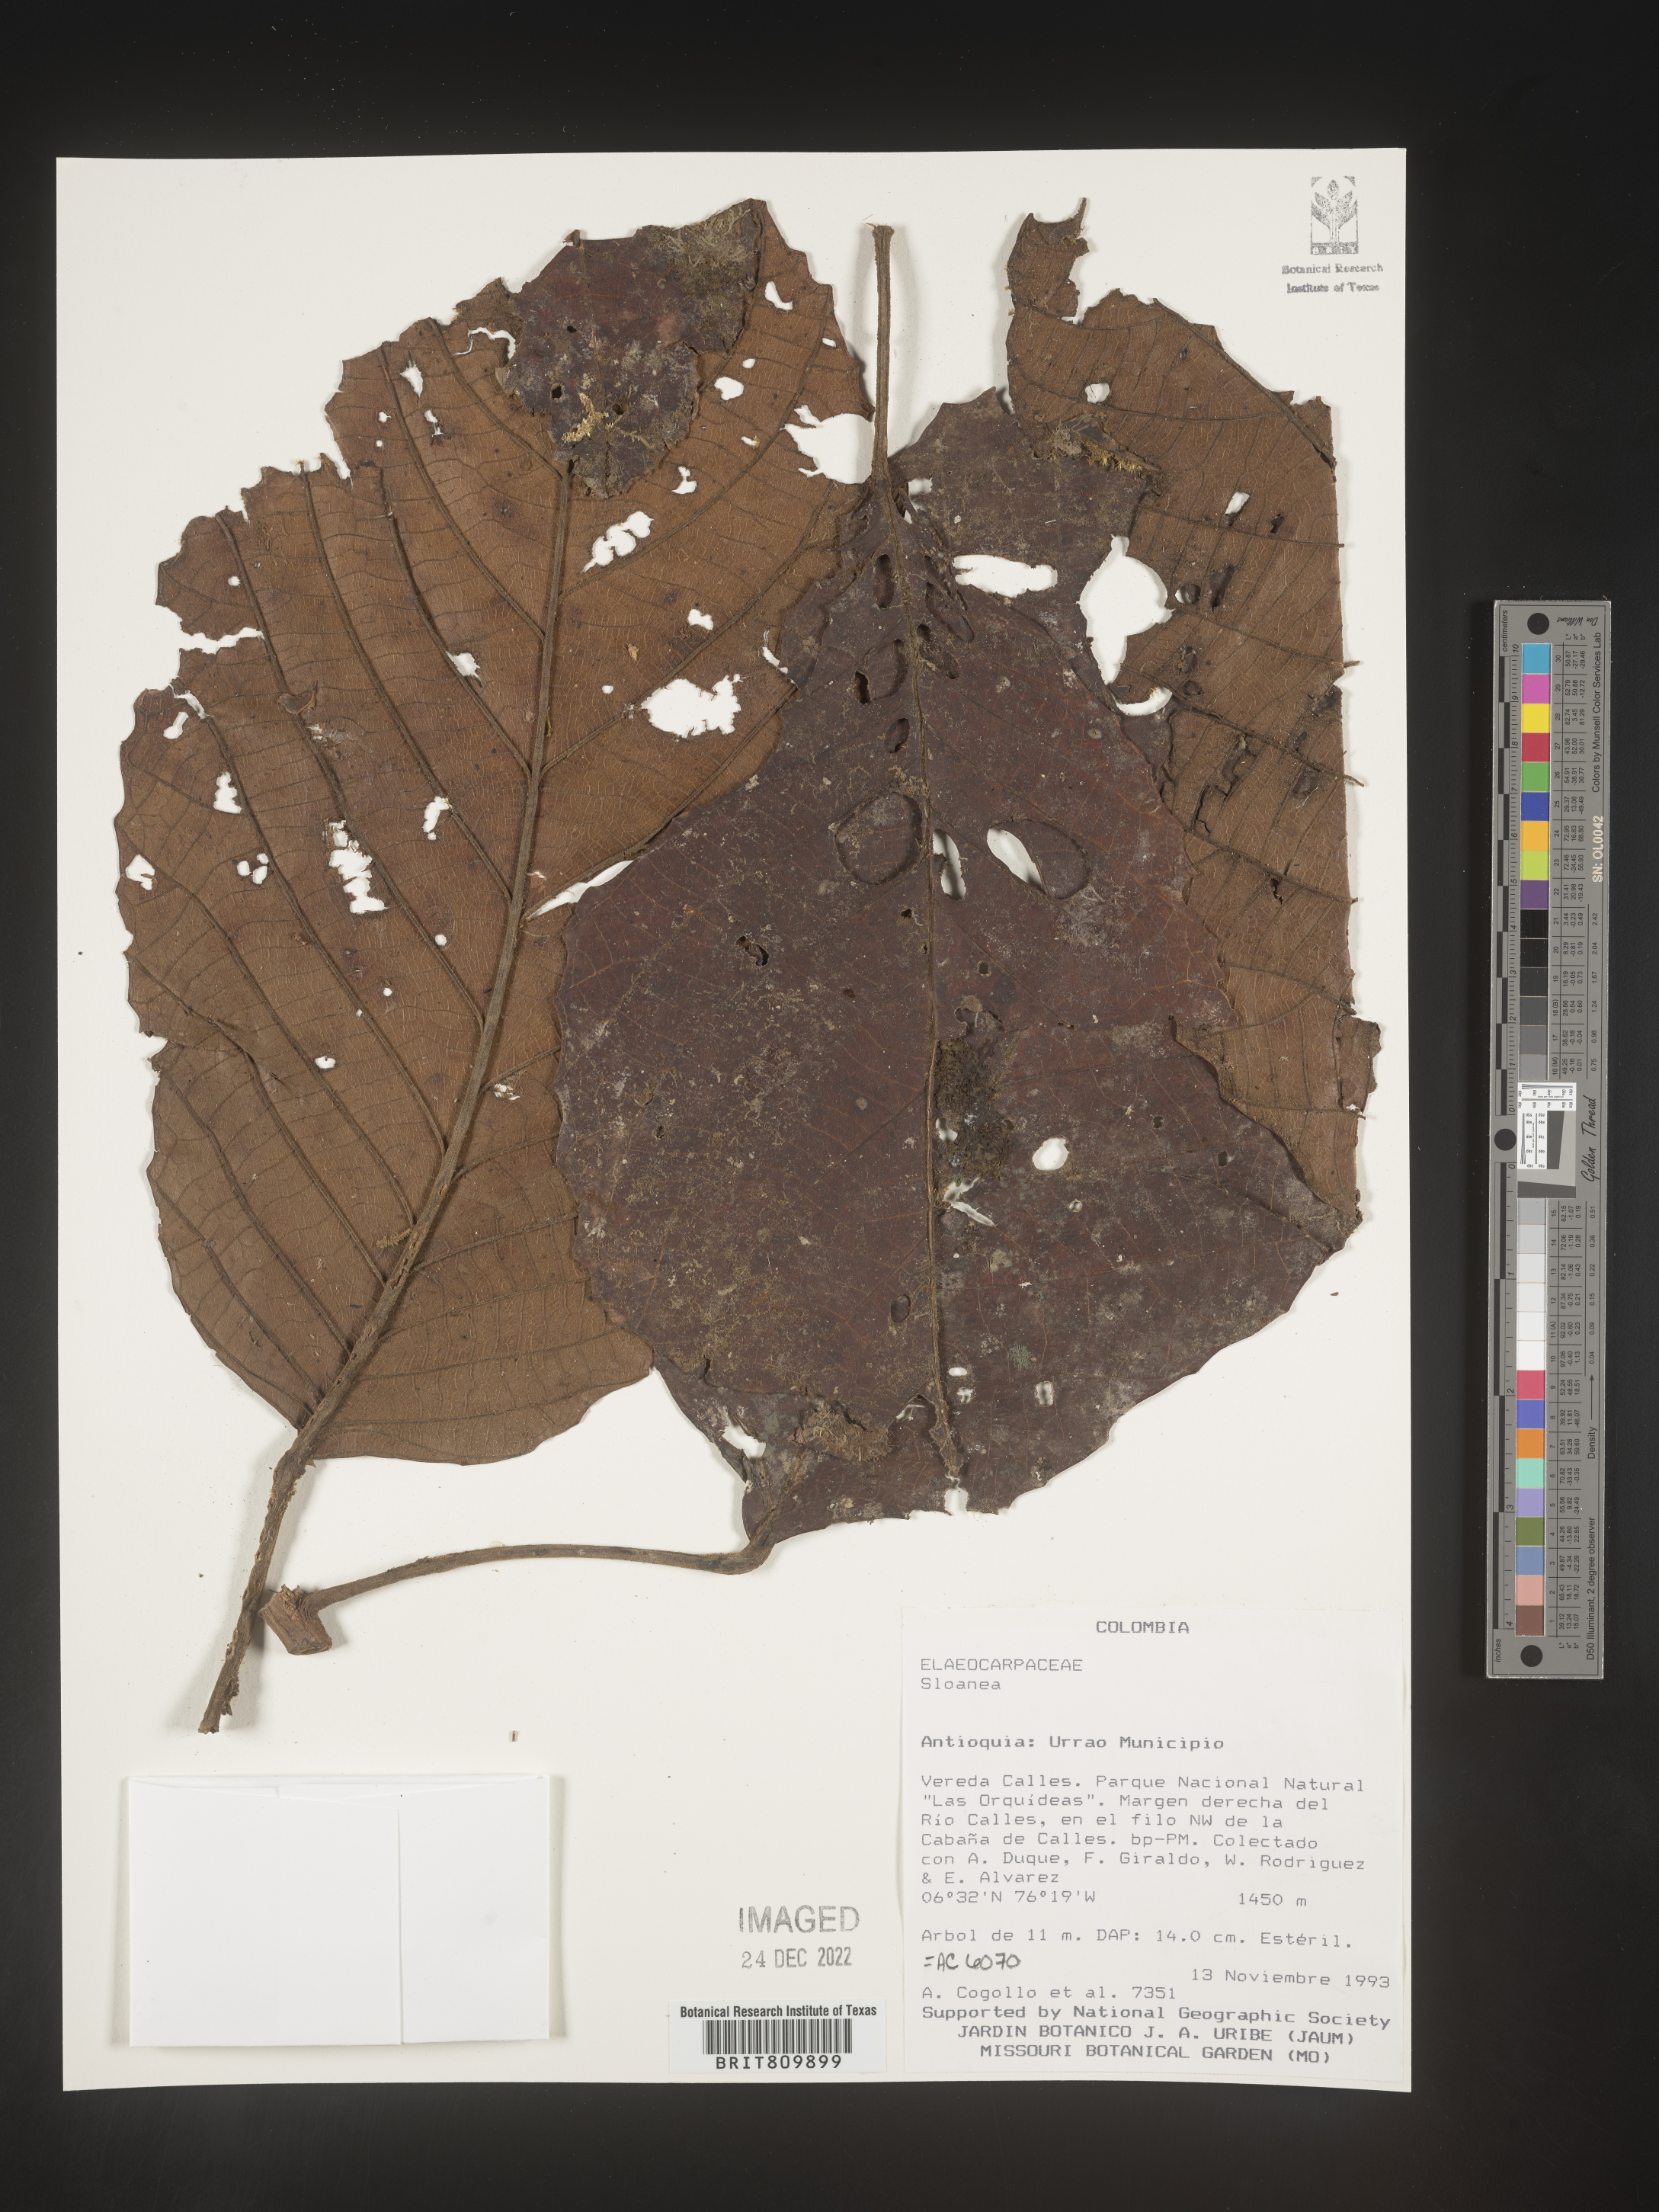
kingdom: Plantae
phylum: Tracheophyta
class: Magnoliopsida
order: Oxalidales
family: Elaeocarpaceae
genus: Sloanea
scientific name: Sloanea
